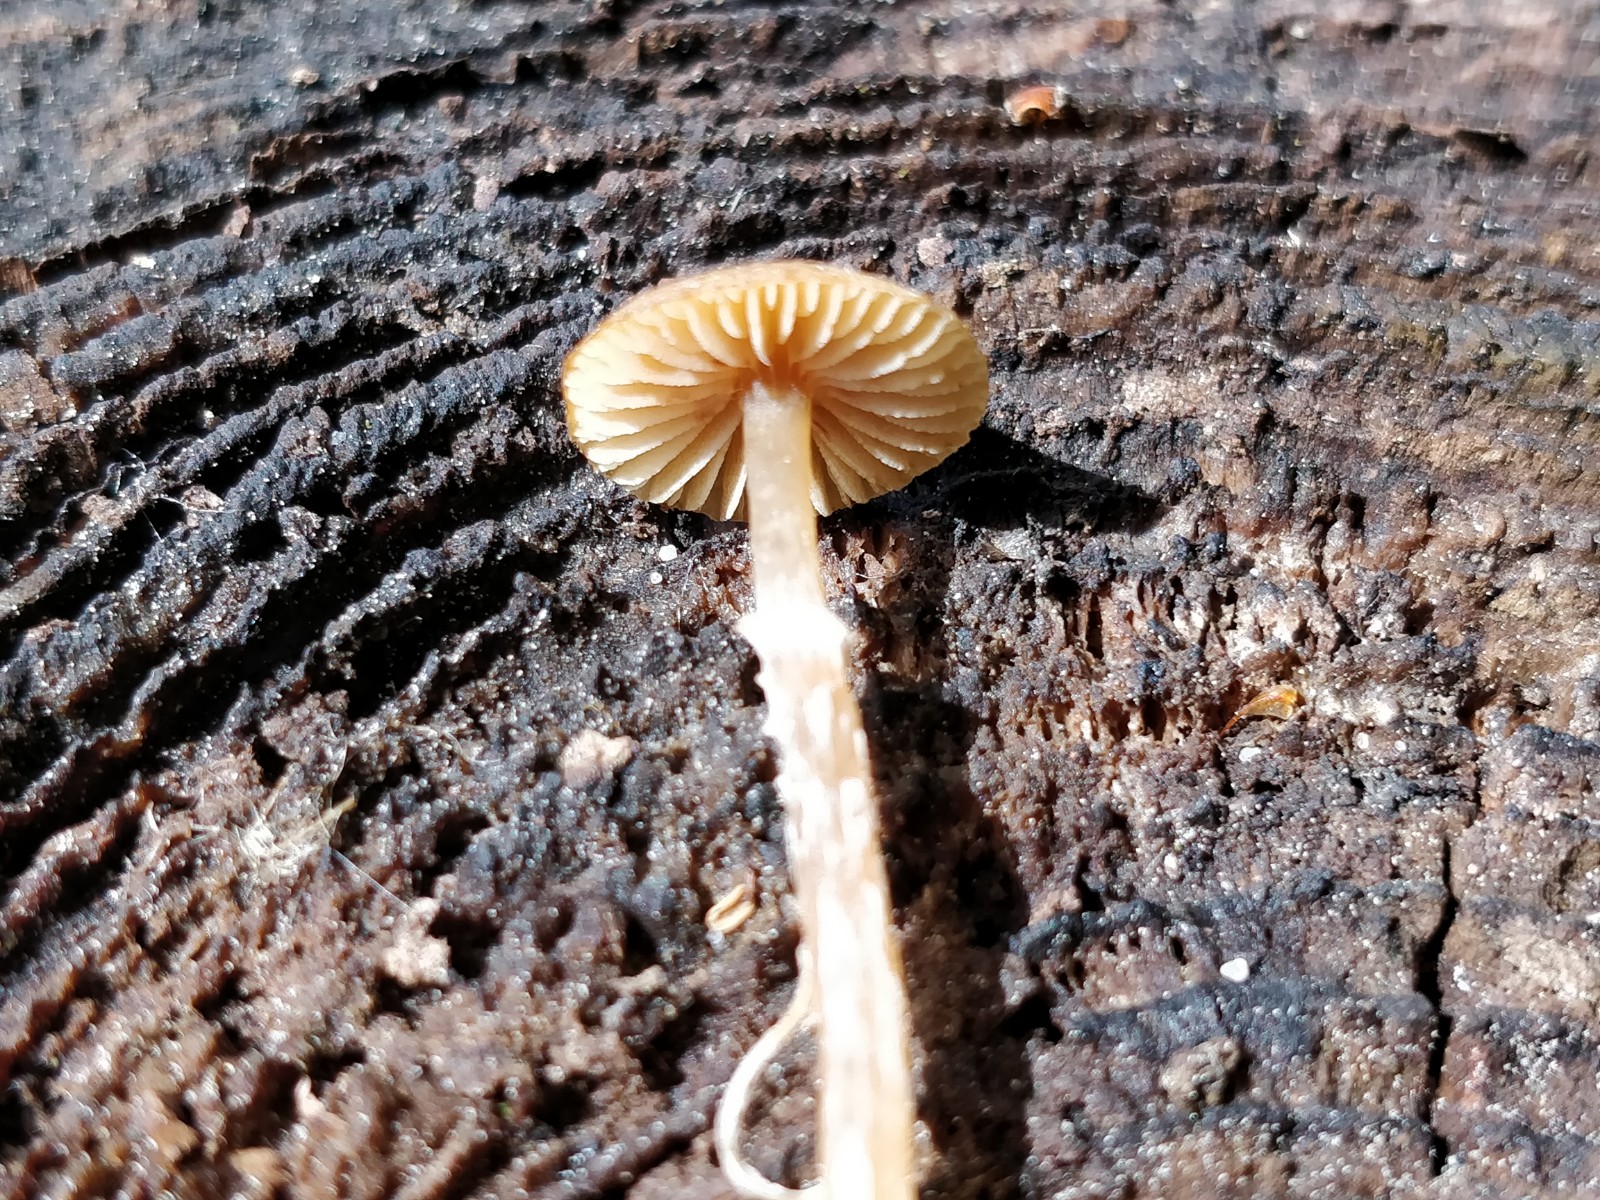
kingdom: Fungi
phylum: Basidiomycota
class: Agaricomycetes
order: Agaricales
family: Hymenogastraceae
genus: Galerina
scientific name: Galerina paludosa
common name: mose-hjelmhat
